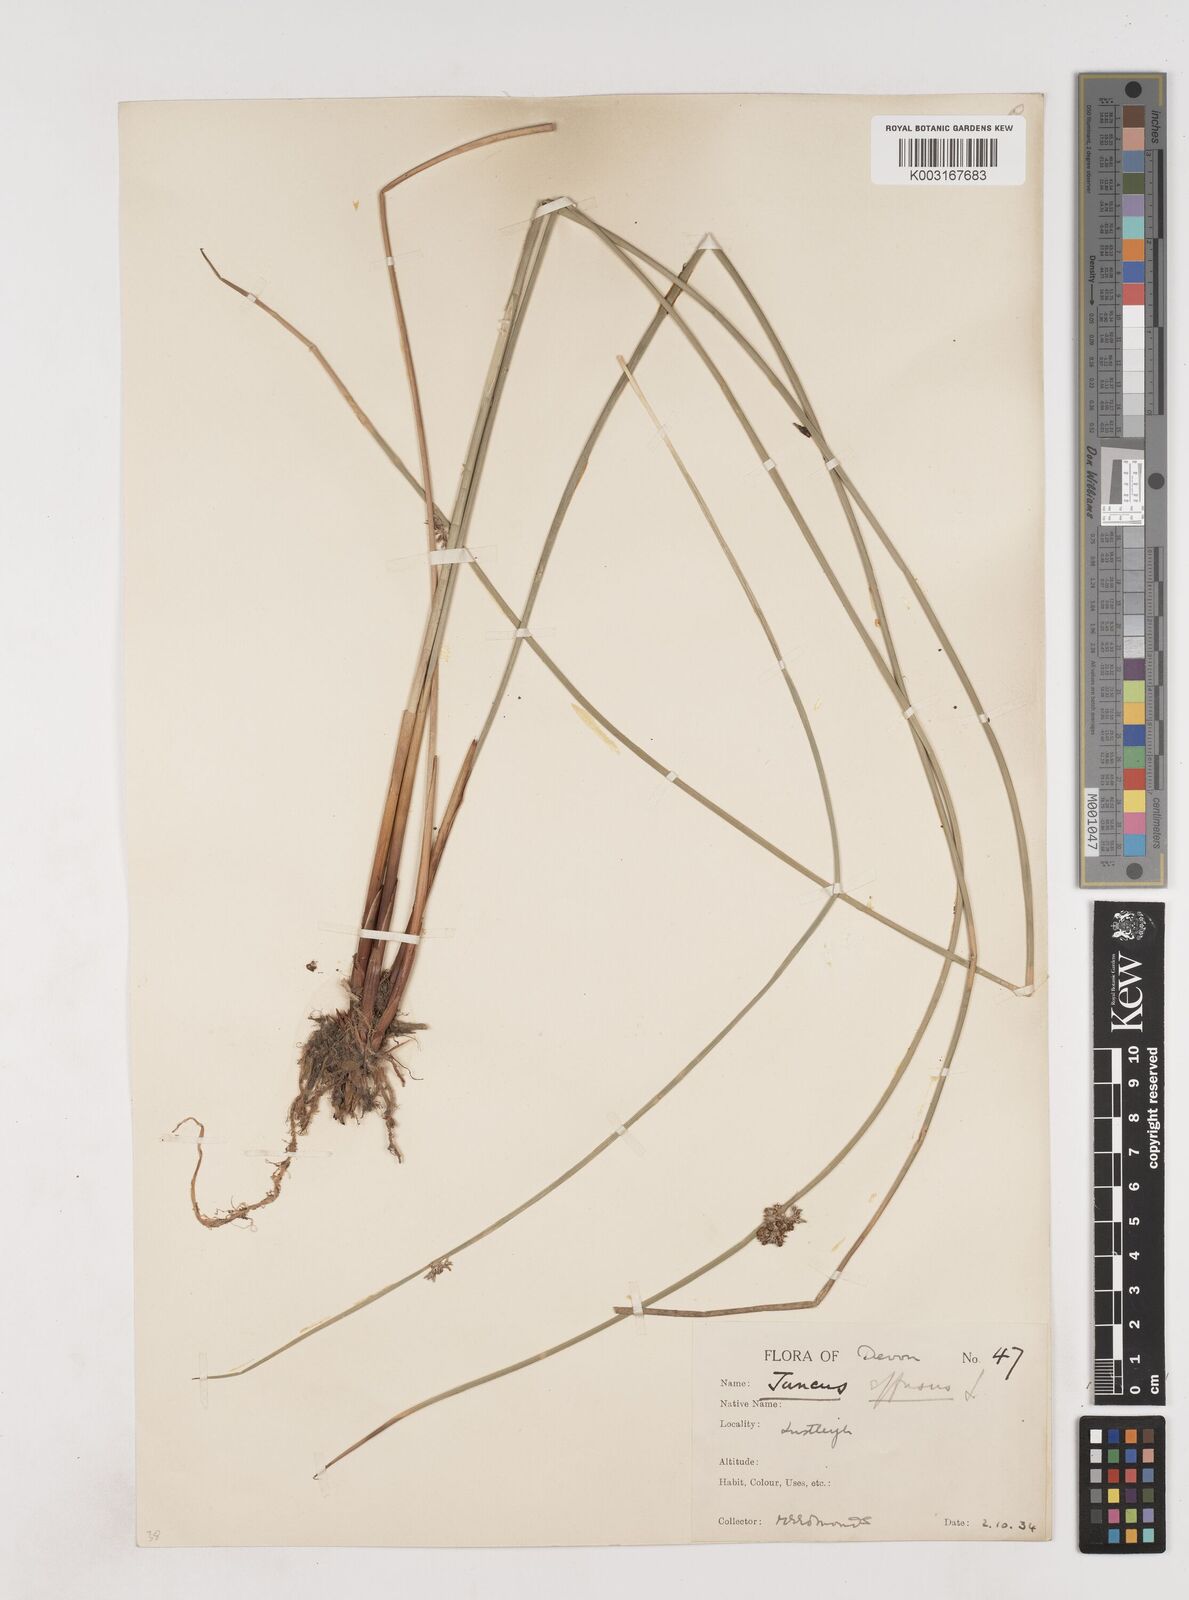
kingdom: Plantae
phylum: Tracheophyta
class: Liliopsida
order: Poales
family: Juncaceae
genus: Juncus
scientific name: Juncus effusus
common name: Soft rush
